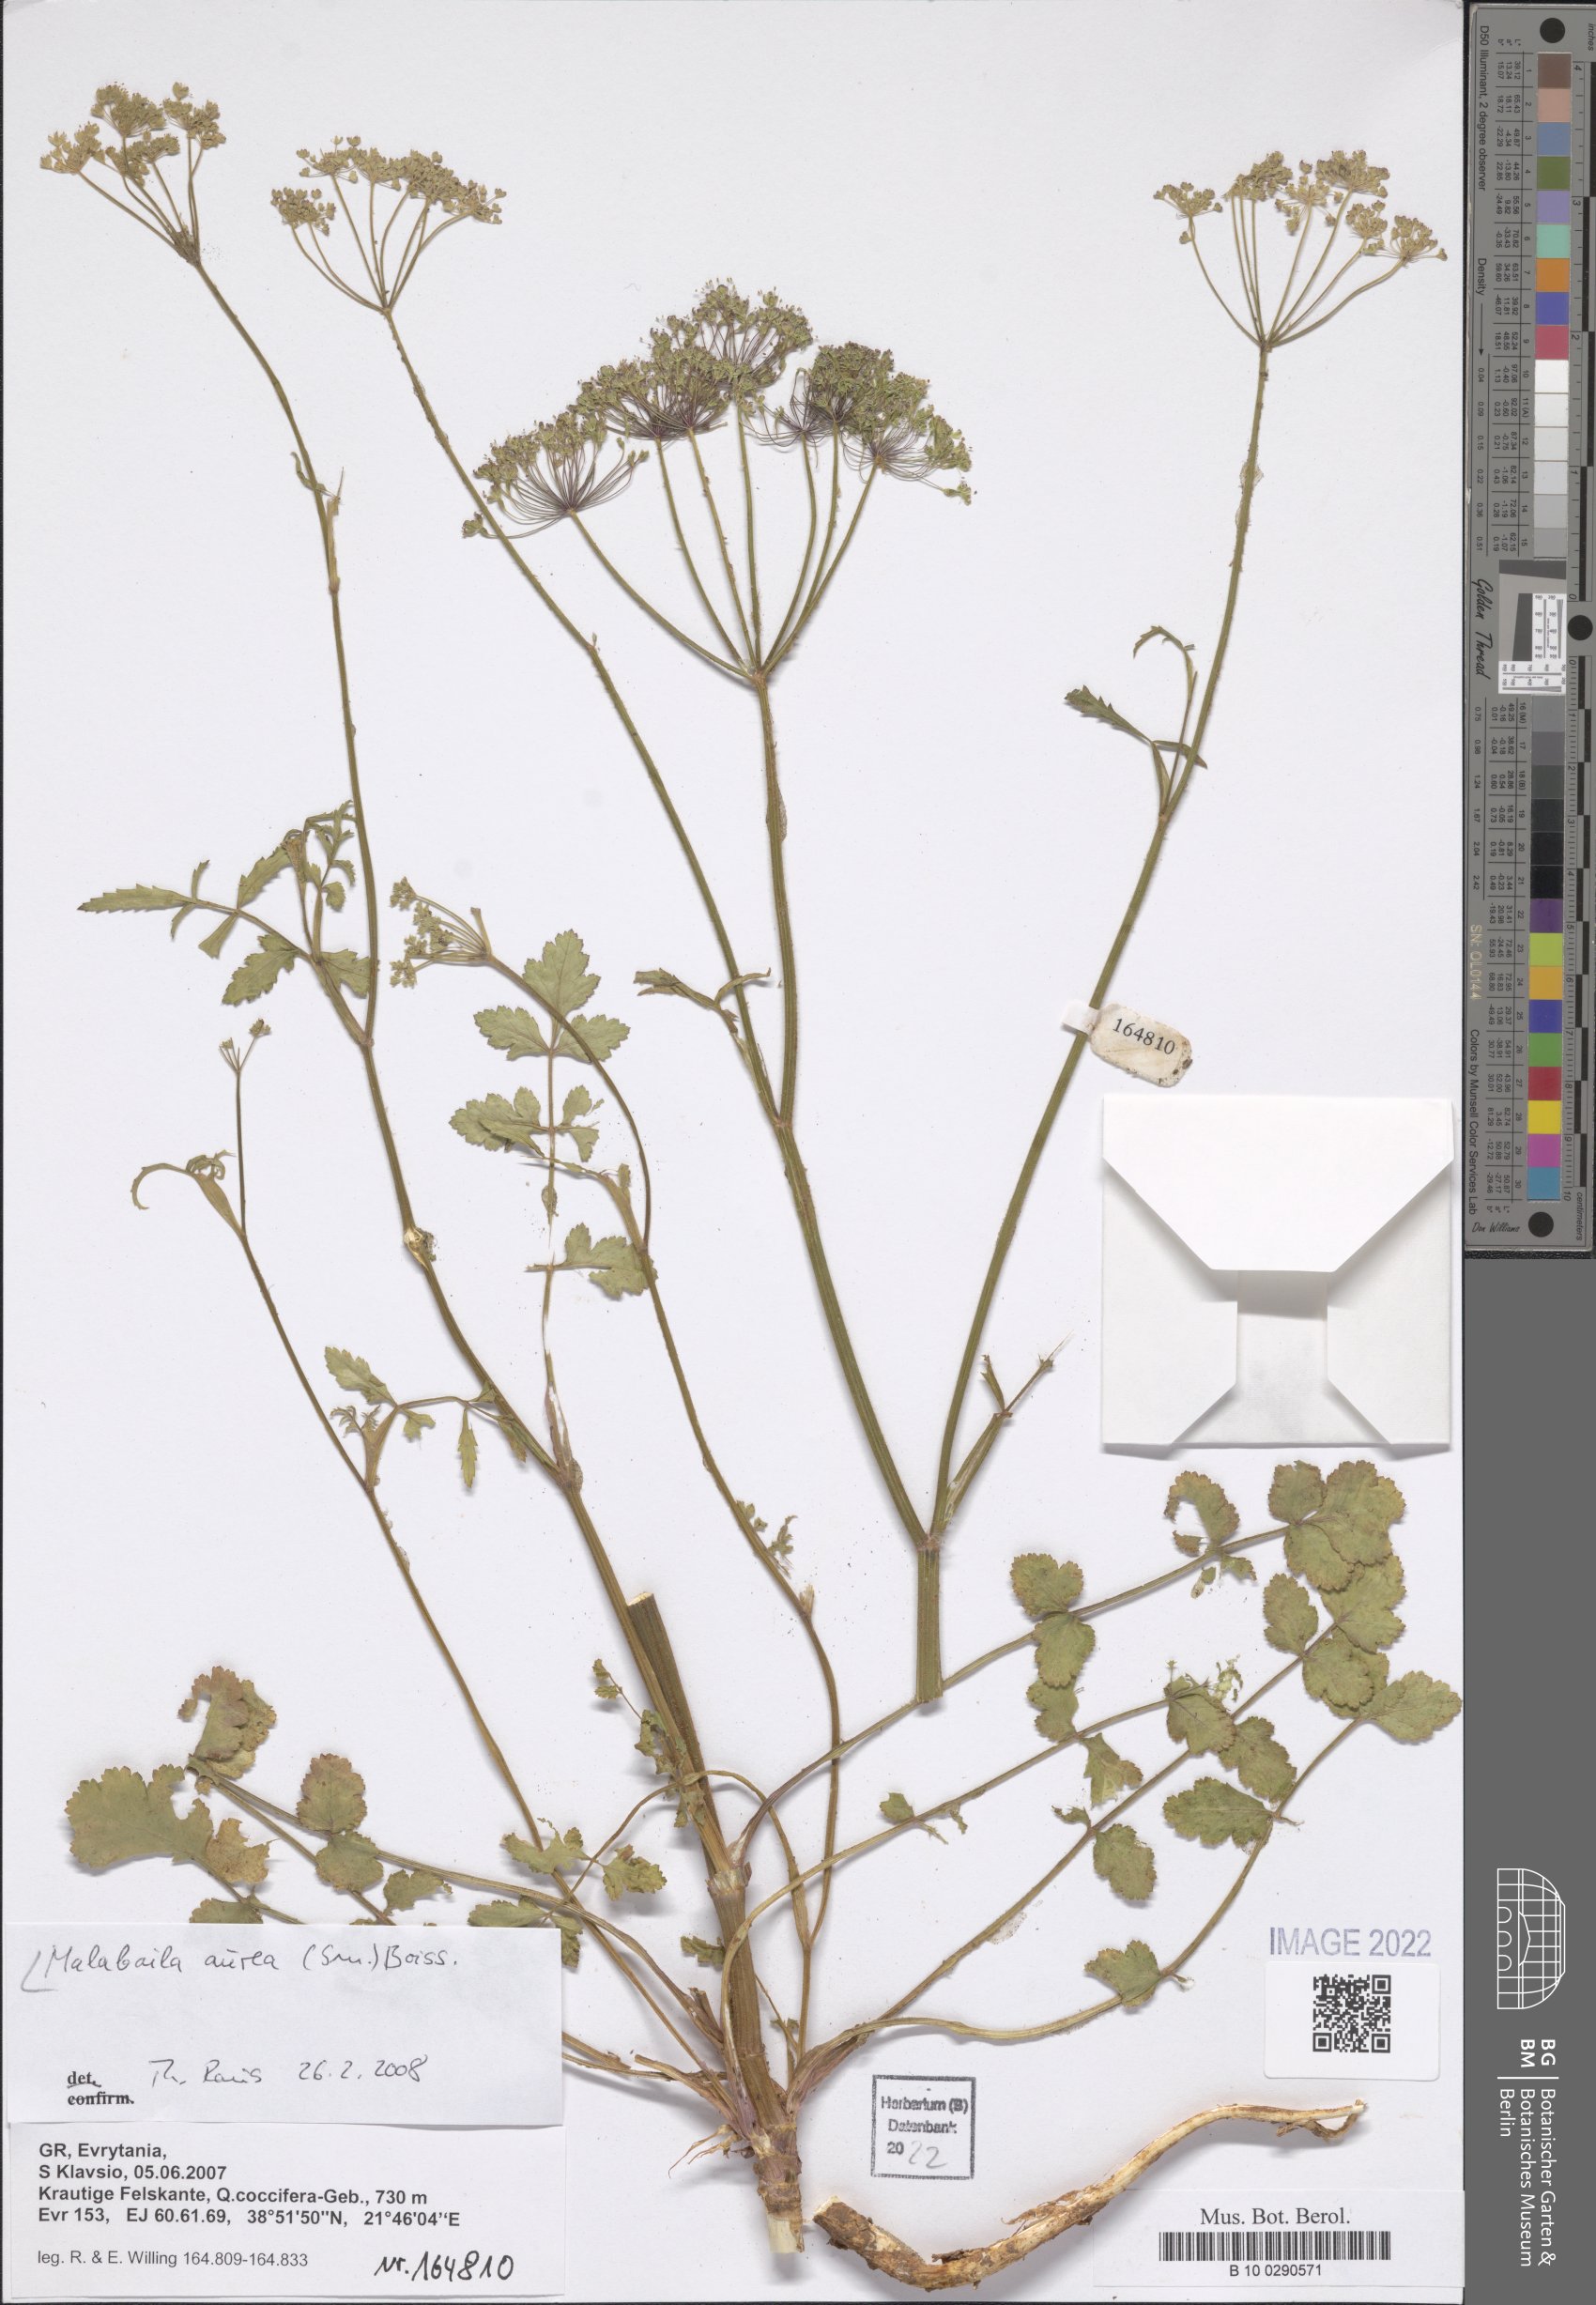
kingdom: Plantae
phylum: Tracheophyta
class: Magnoliopsida
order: Apiales
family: Apiaceae
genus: Leiotulus
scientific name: Leiotulus aureus
